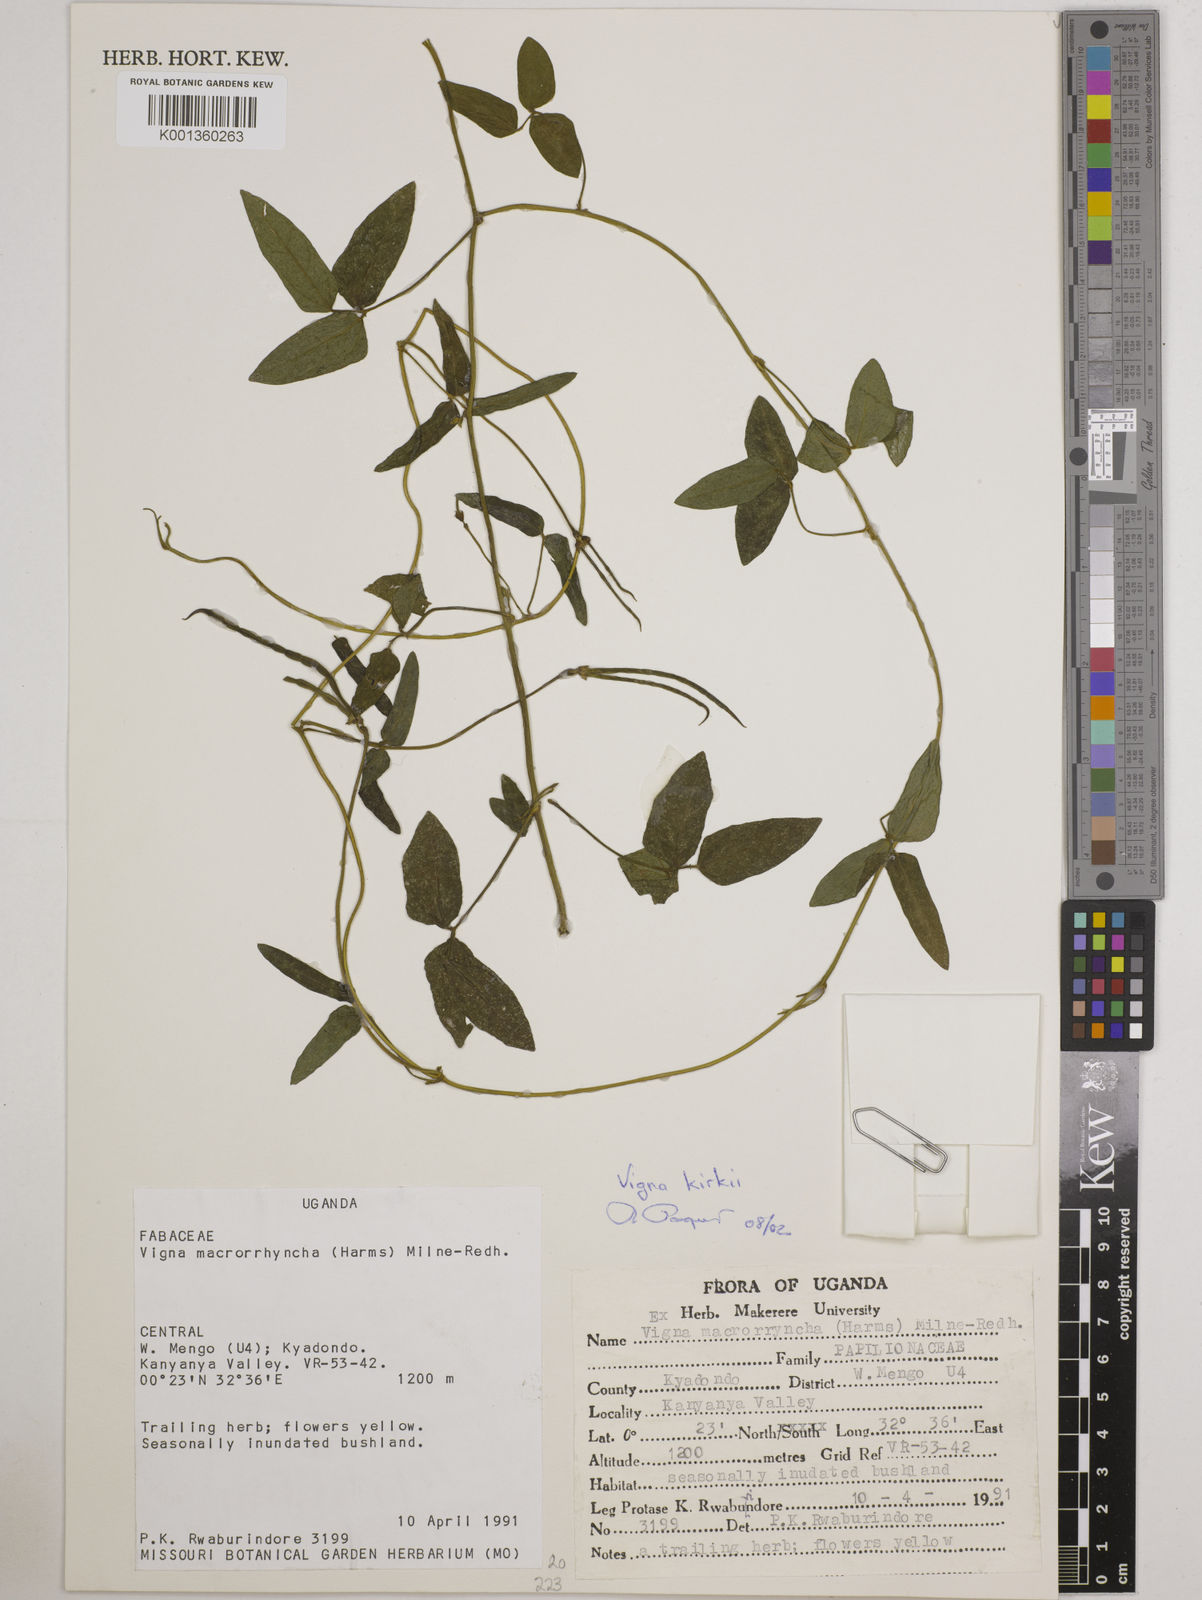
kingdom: Plantae
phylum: Tracheophyta
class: Magnoliopsida
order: Fabales
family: Fabaceae
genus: Vigna
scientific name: Vigna kirkii
